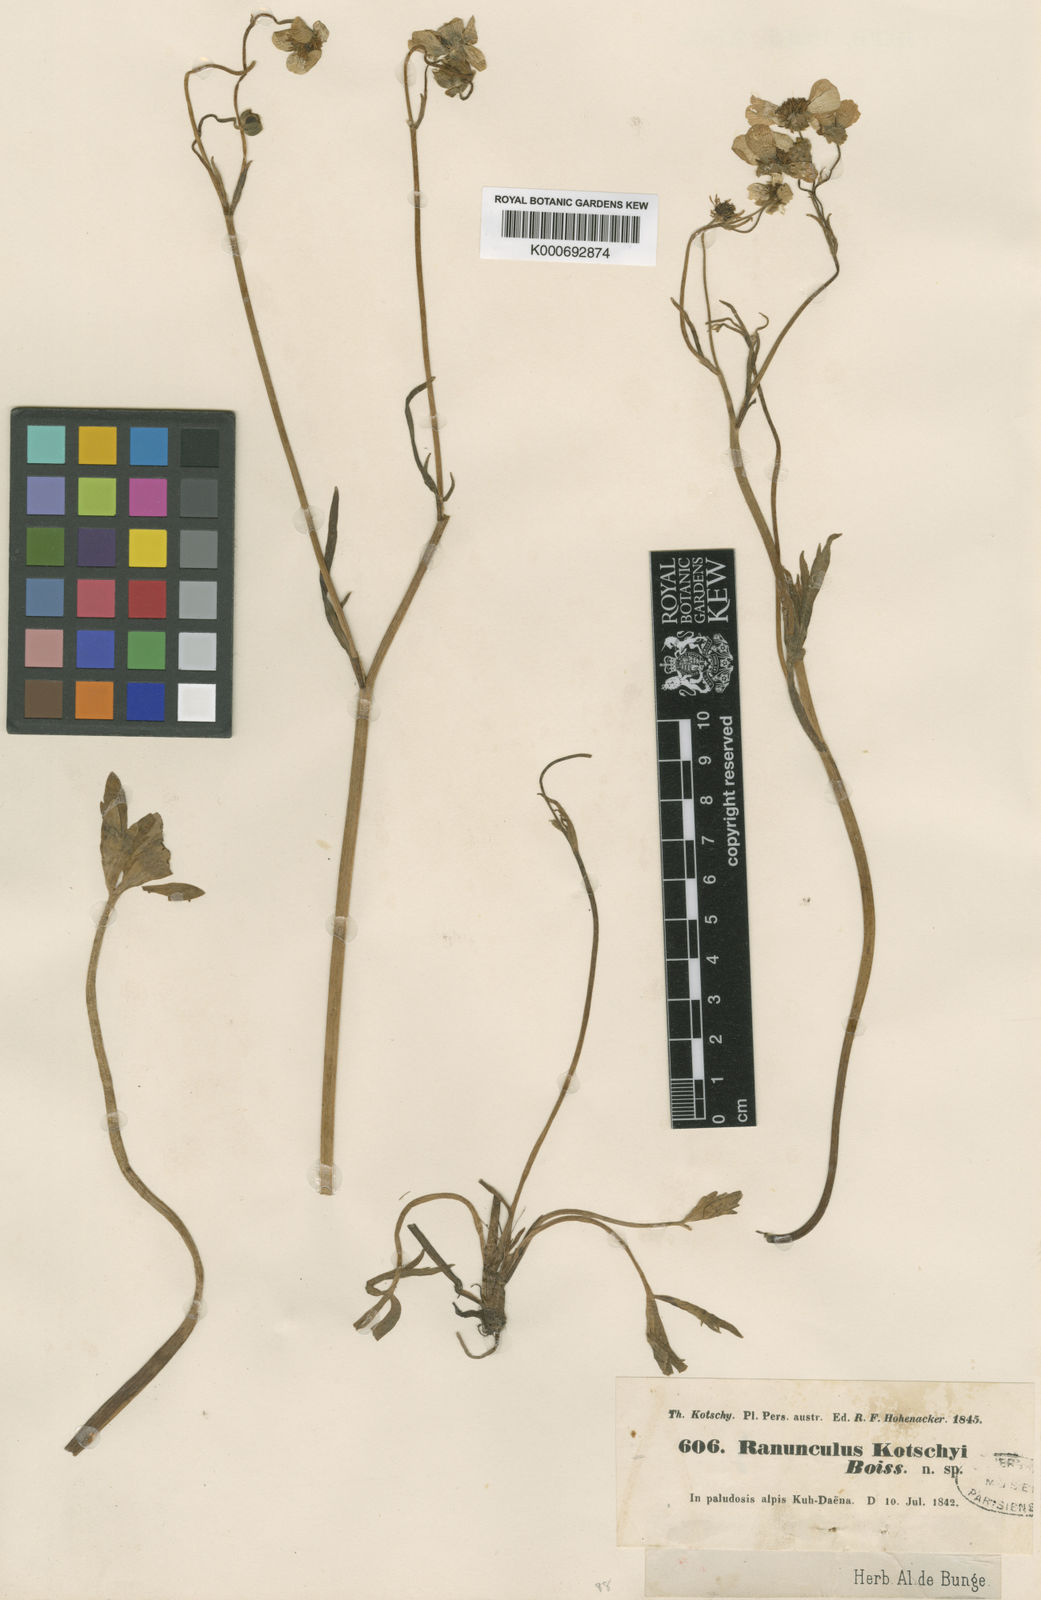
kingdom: Plantae
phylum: Tracheophyta
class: Magnoliopsida
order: Ranunculales
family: Ranunculaceae
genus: Ranunculus
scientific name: Ranunculus kotschyi
